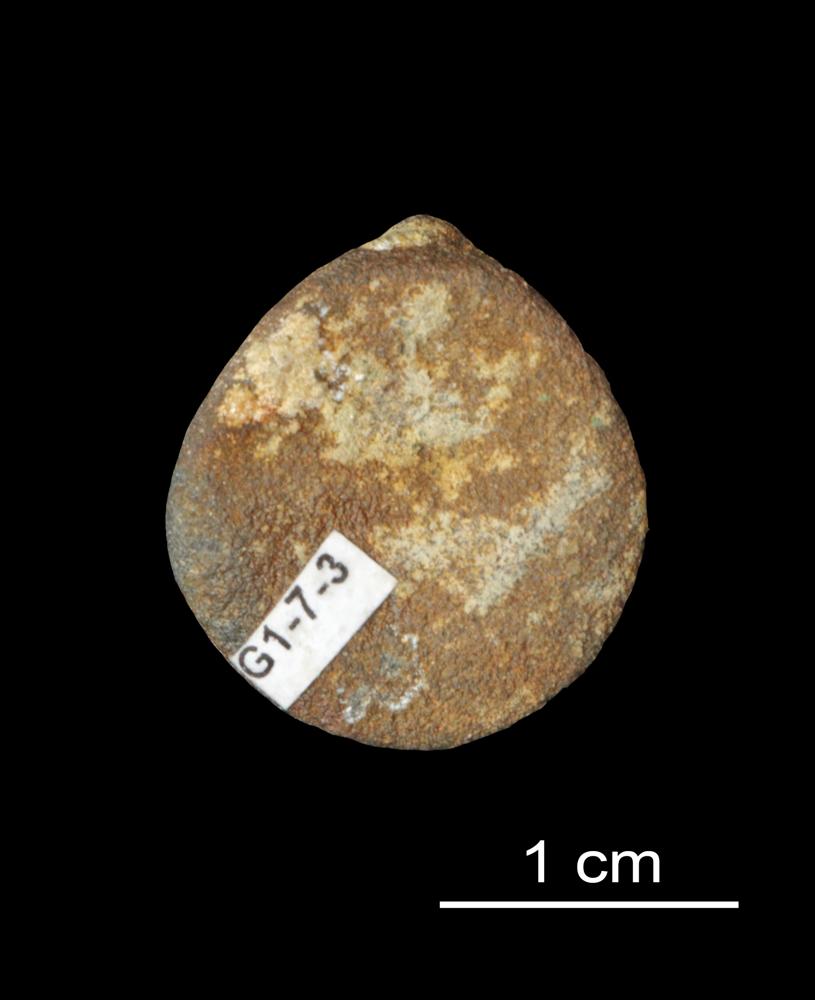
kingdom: Animalia
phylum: Brachiopoda
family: Paterinidae
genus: Mickwitzia
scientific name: Mickwitzia
